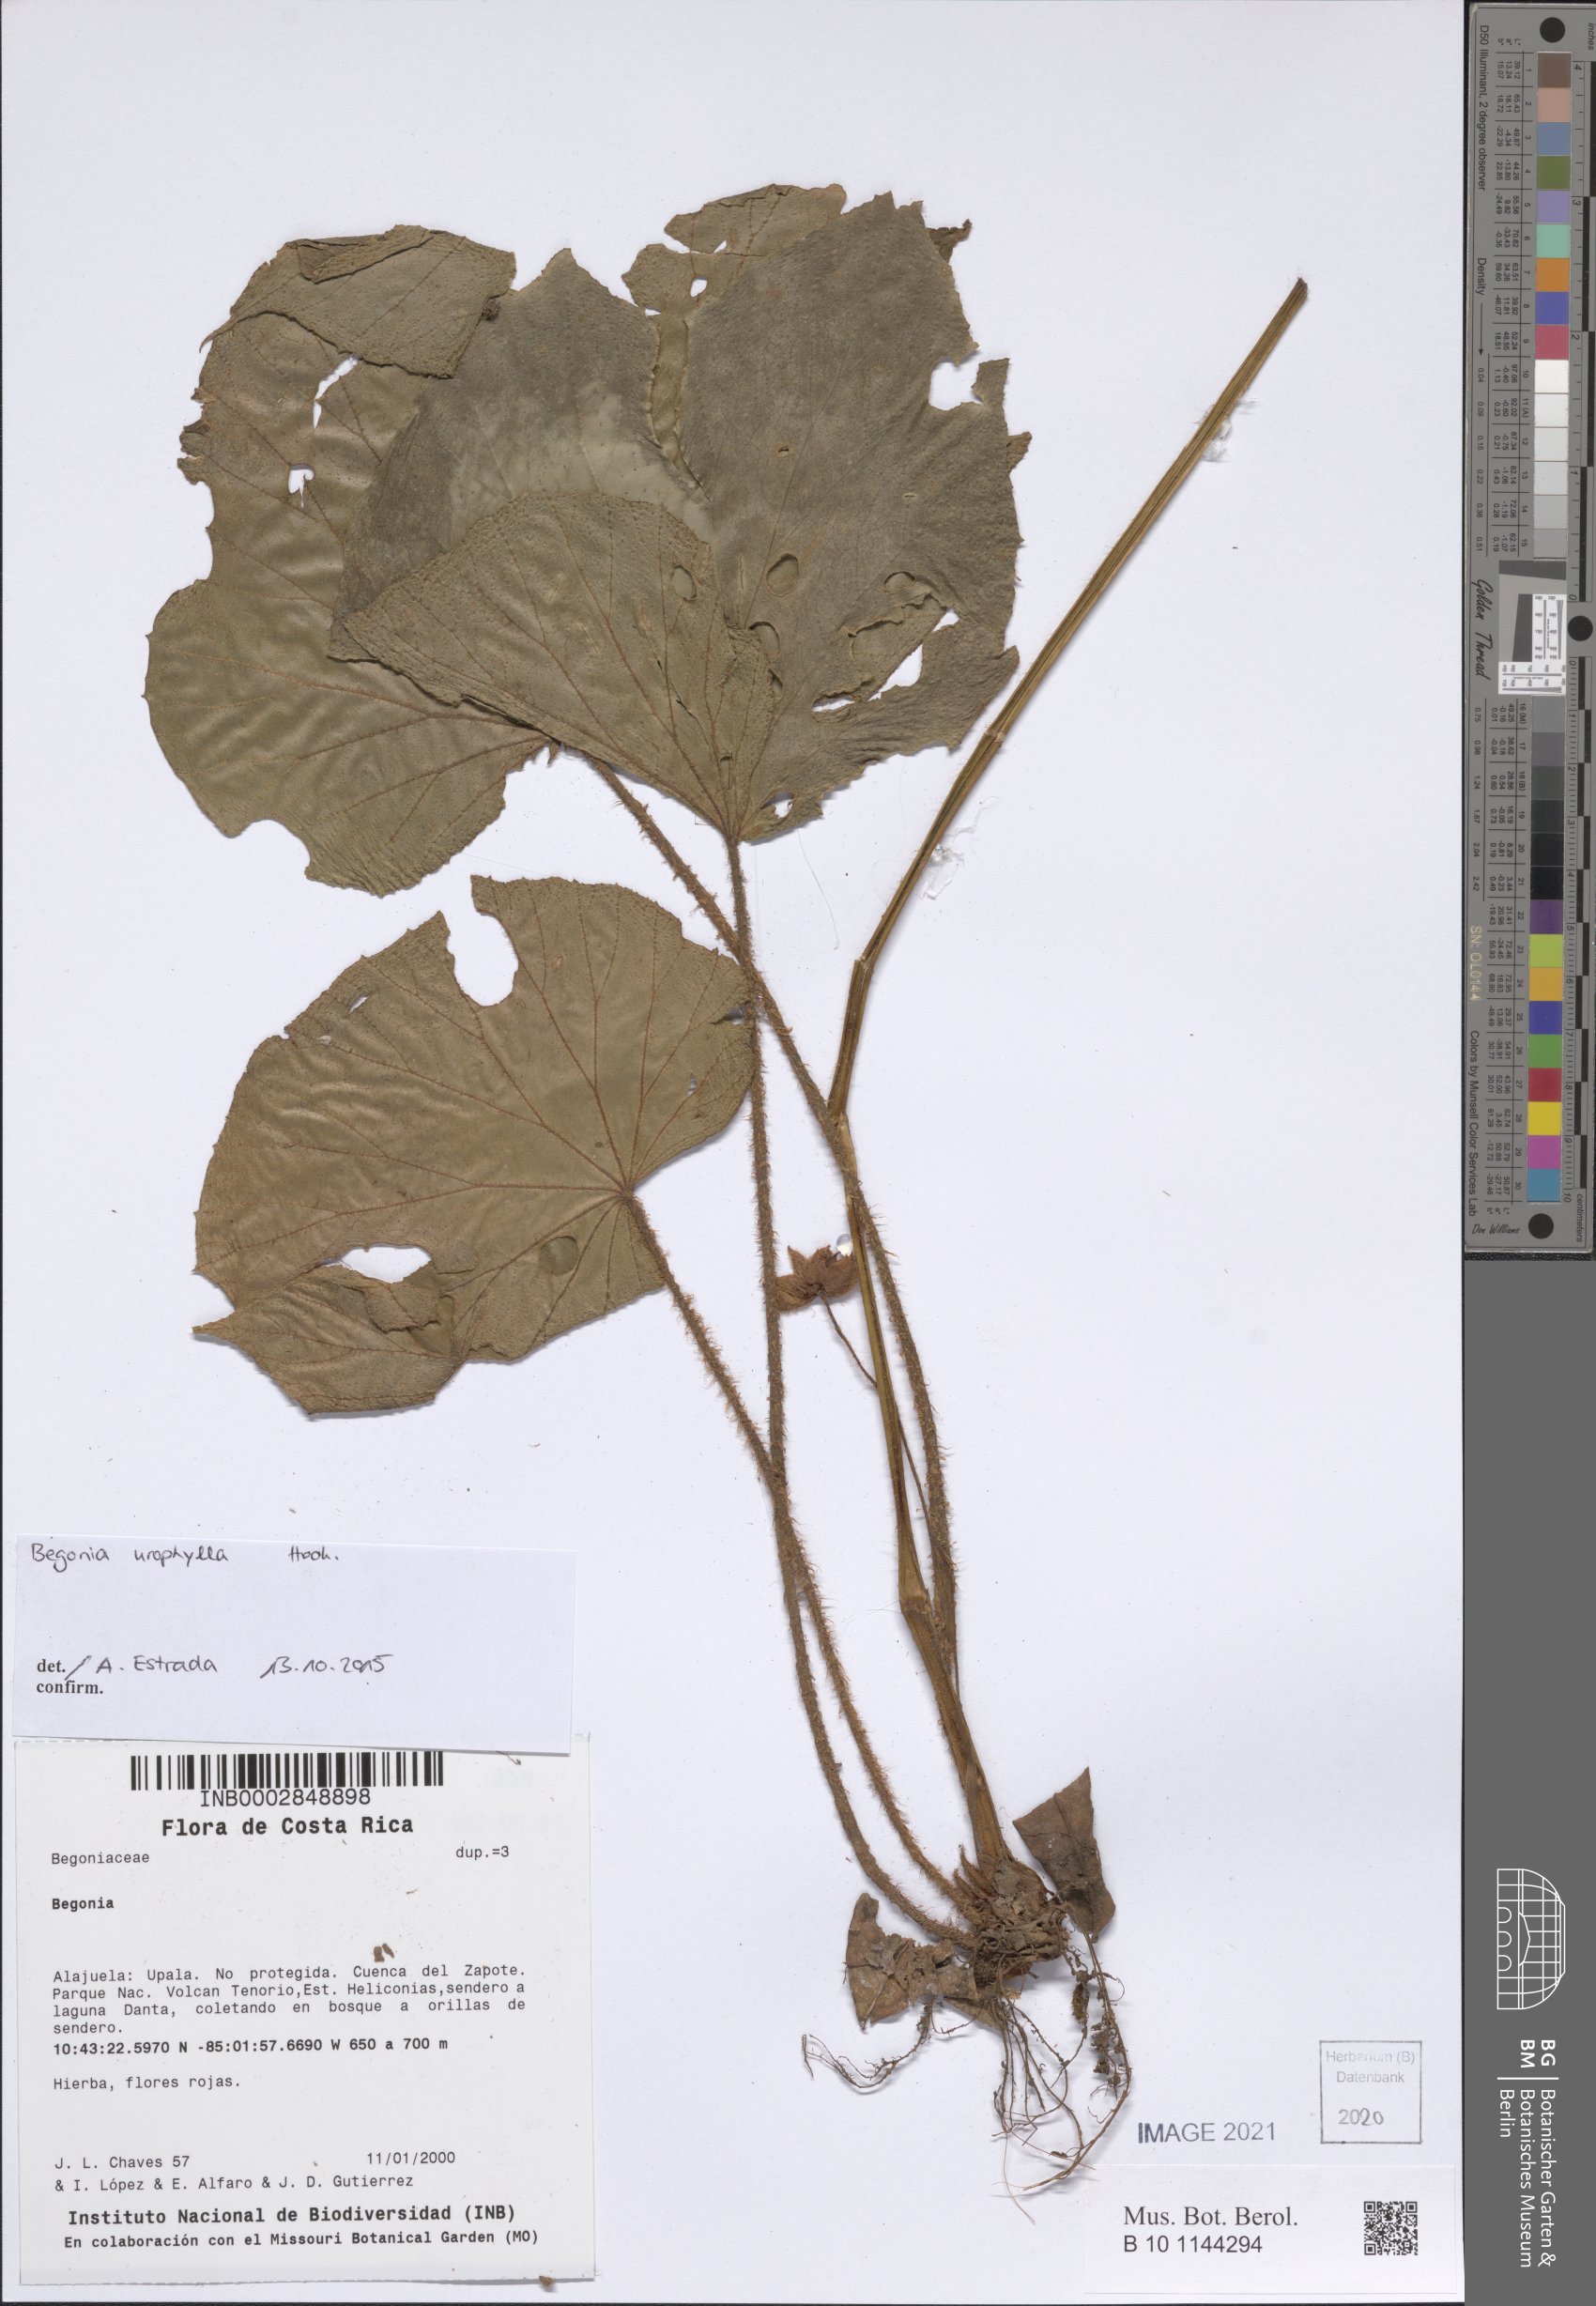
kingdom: Plantae
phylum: Tracheophyta
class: Magnoliopsida
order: Cucurbitales
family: Begoniaceae
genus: Begonia
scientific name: Begonia
